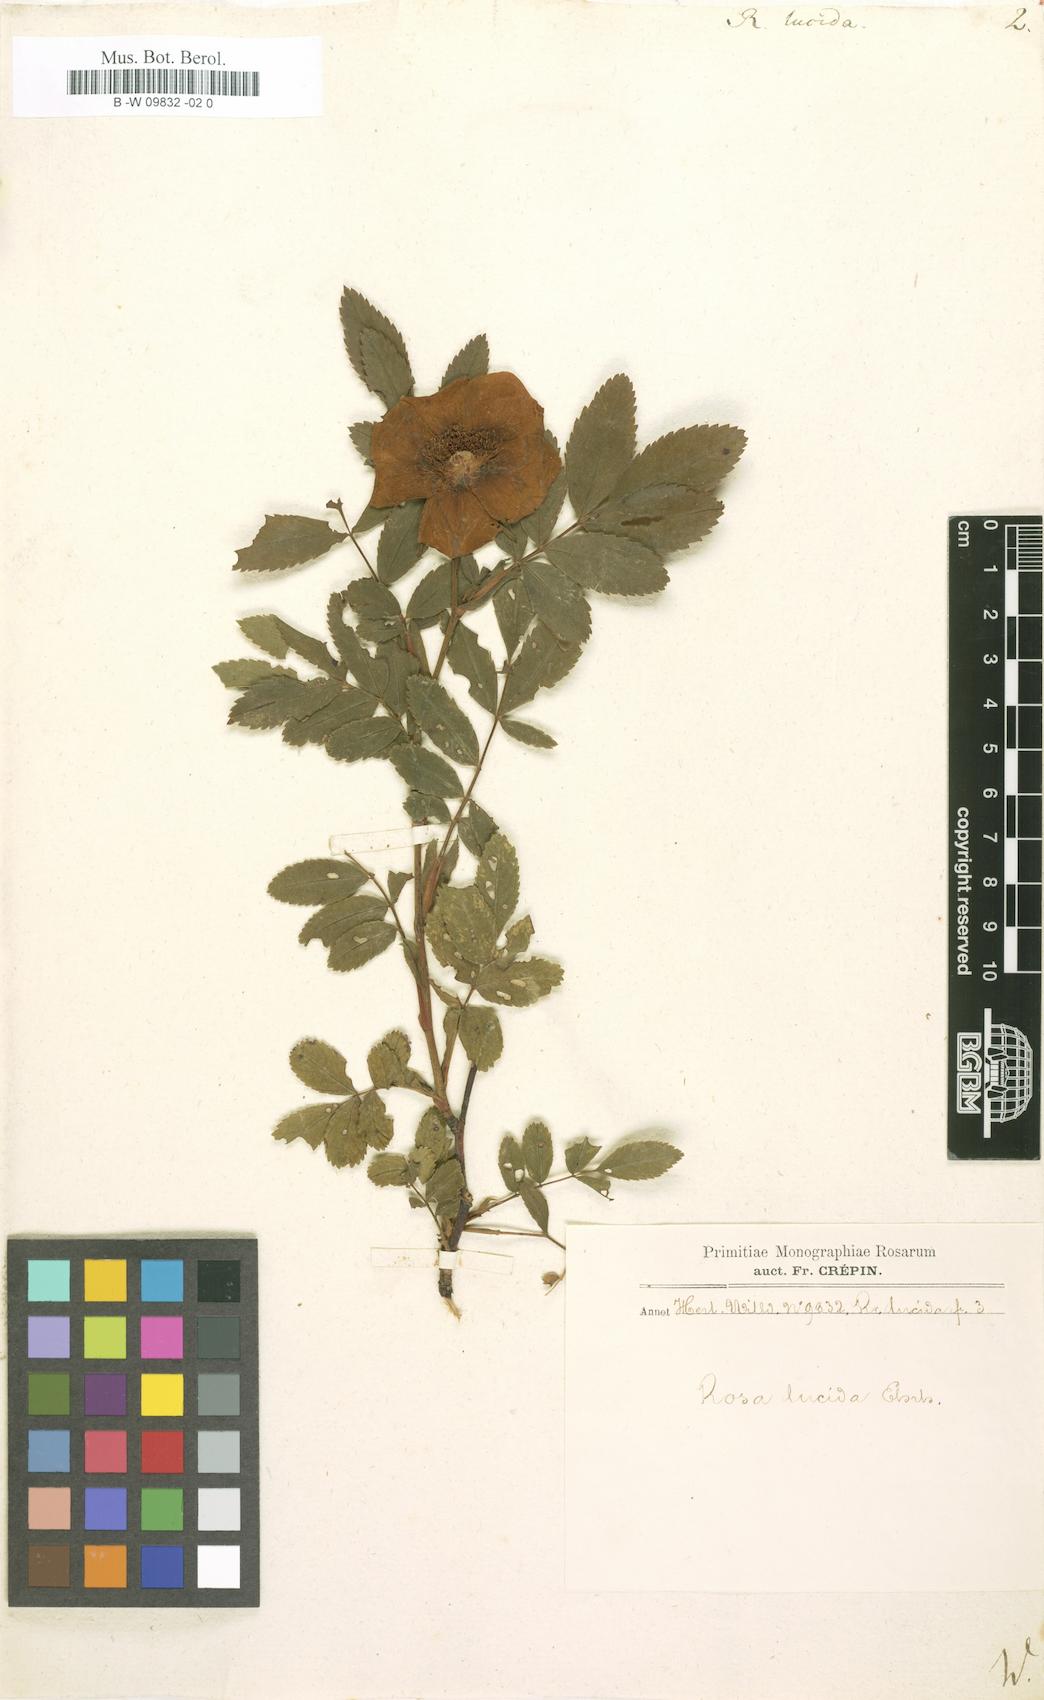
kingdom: Plantae
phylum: Tracheophyta
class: Magnoliopsida
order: Rosales
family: Rosaceae
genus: Rosa
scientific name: Rosa
